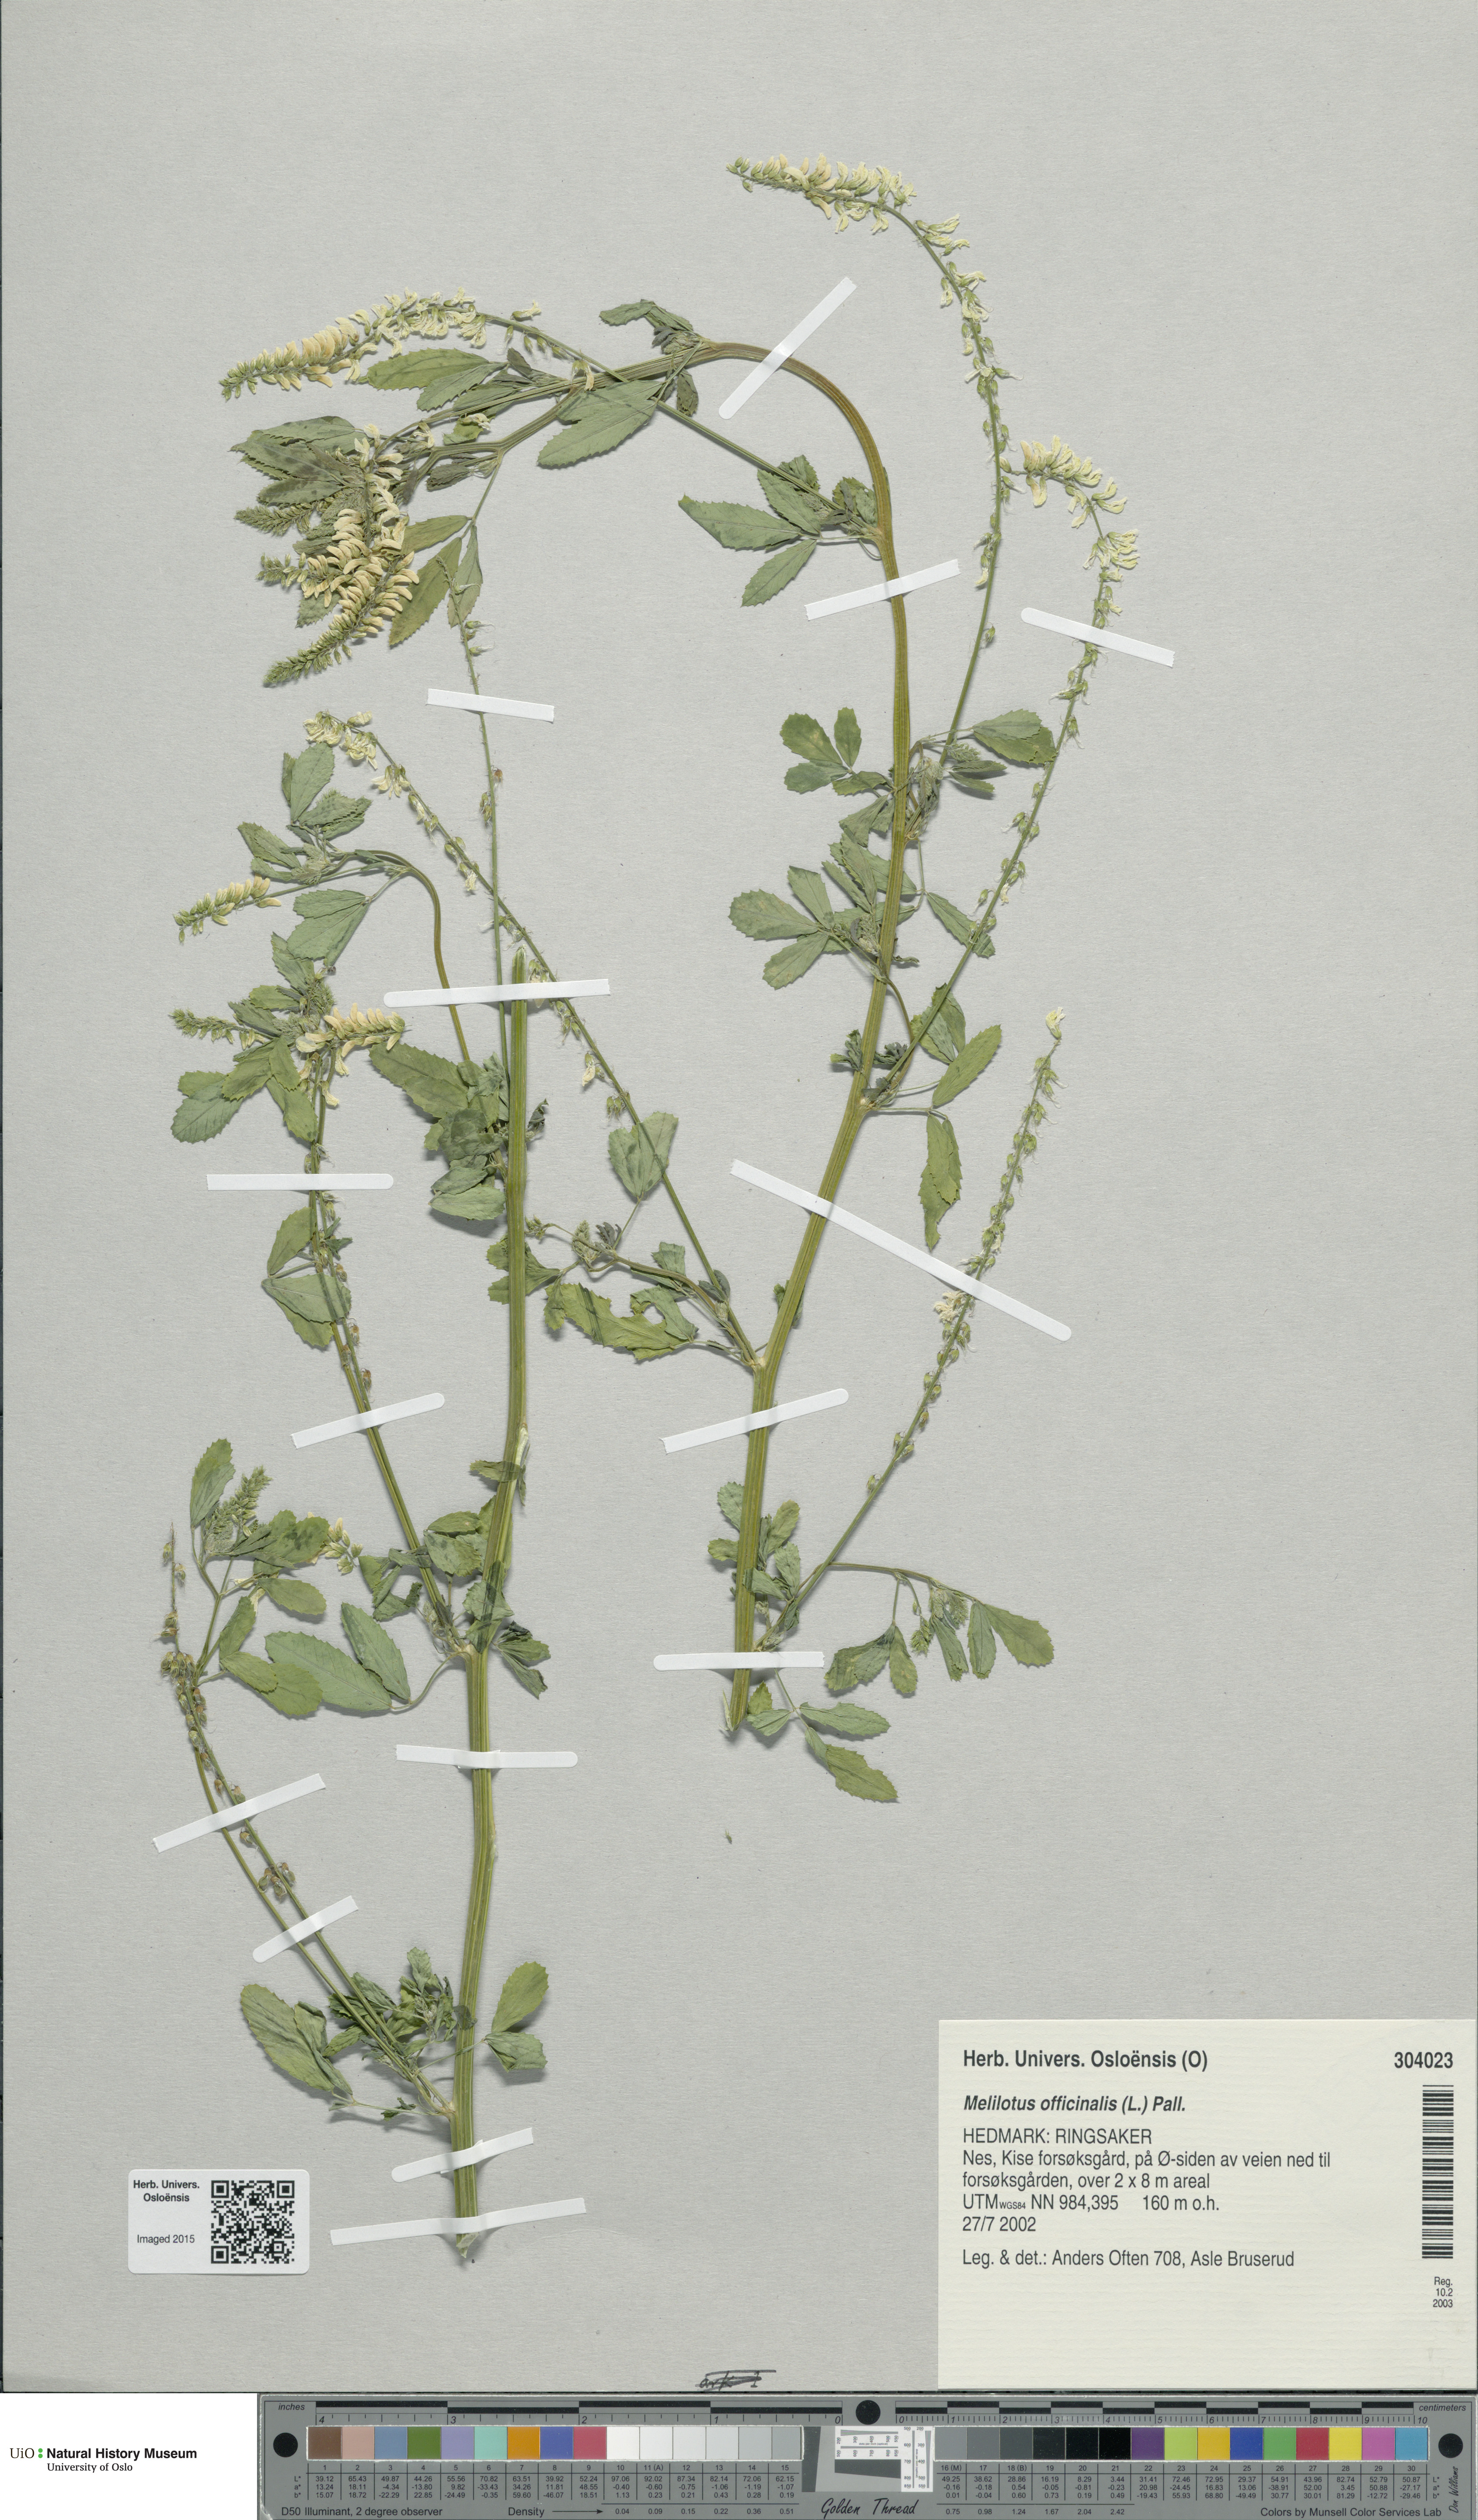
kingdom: Plantae
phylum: Tracheophyta
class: Magnoliopsida
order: Fabales
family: Fabaceae
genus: Melilotus
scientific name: Melilotus officinalis
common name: Sweetclover
